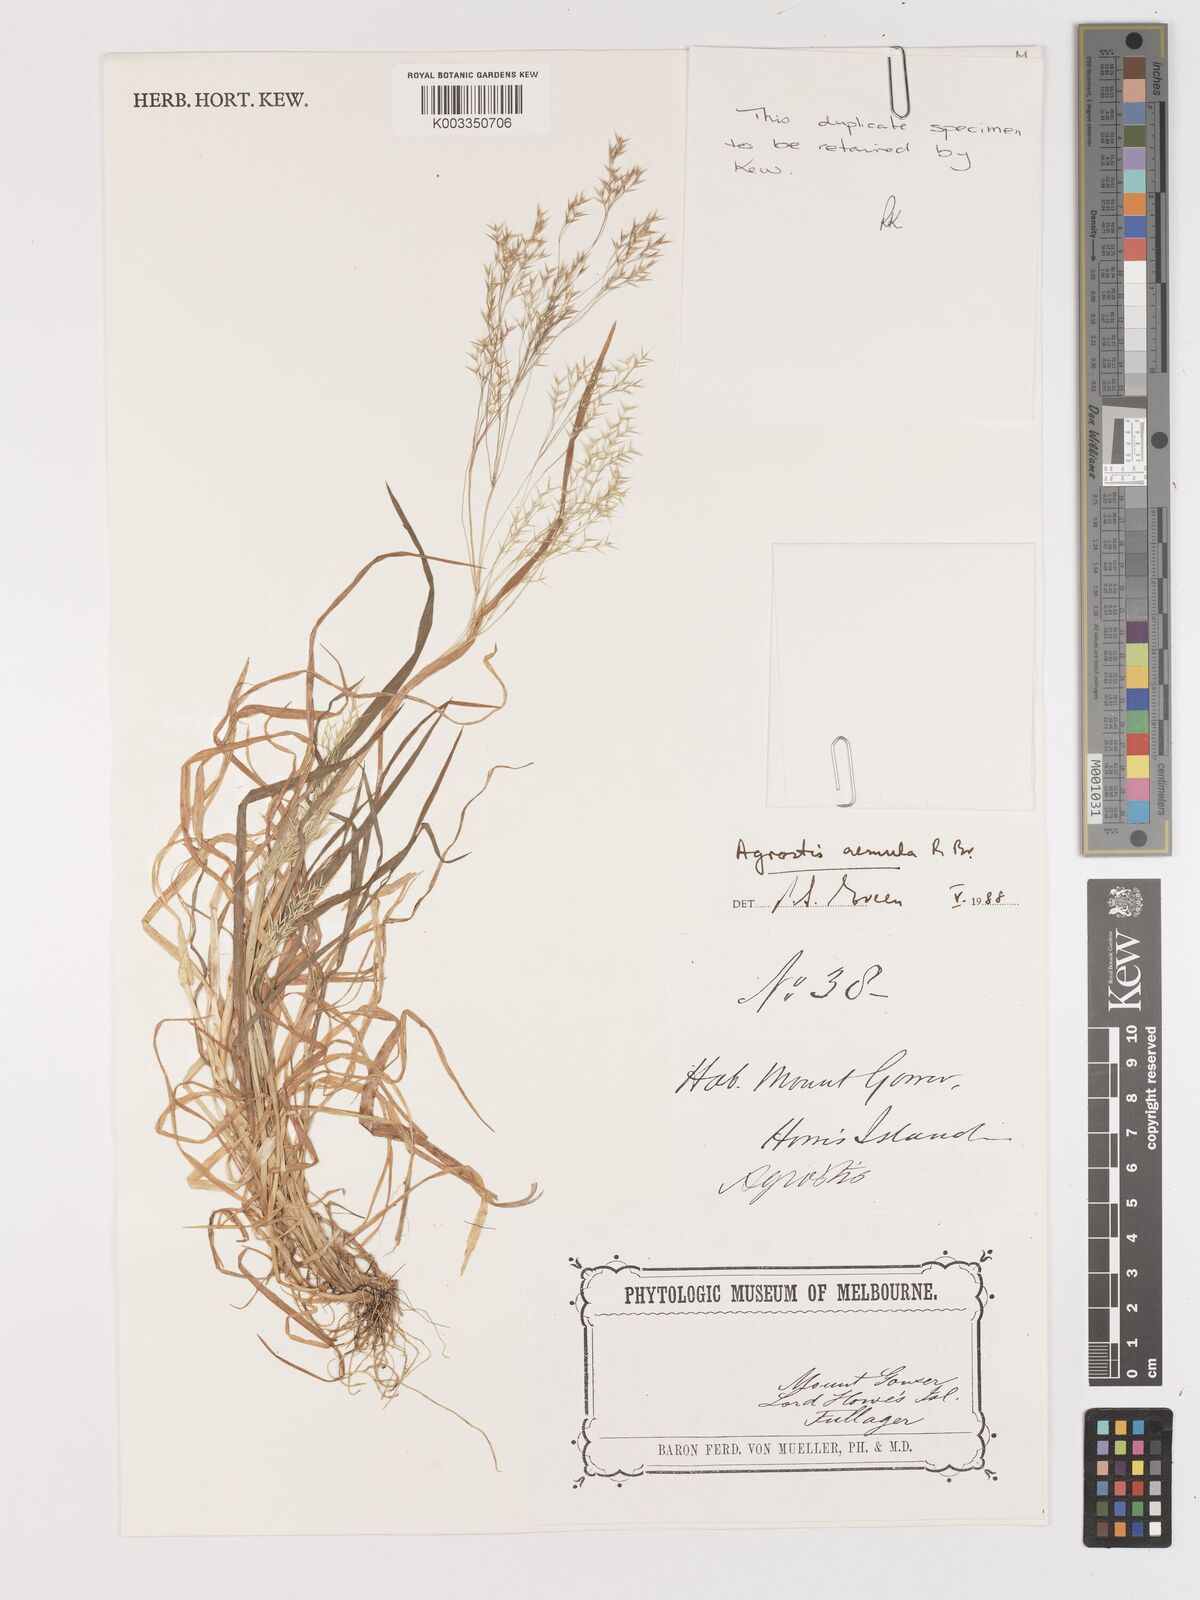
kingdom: Plantae
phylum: Tracheophyta
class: Liliopsida
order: Poales
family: Poaceae
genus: Lachnagrostis
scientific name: Lachnagrostis aemula
